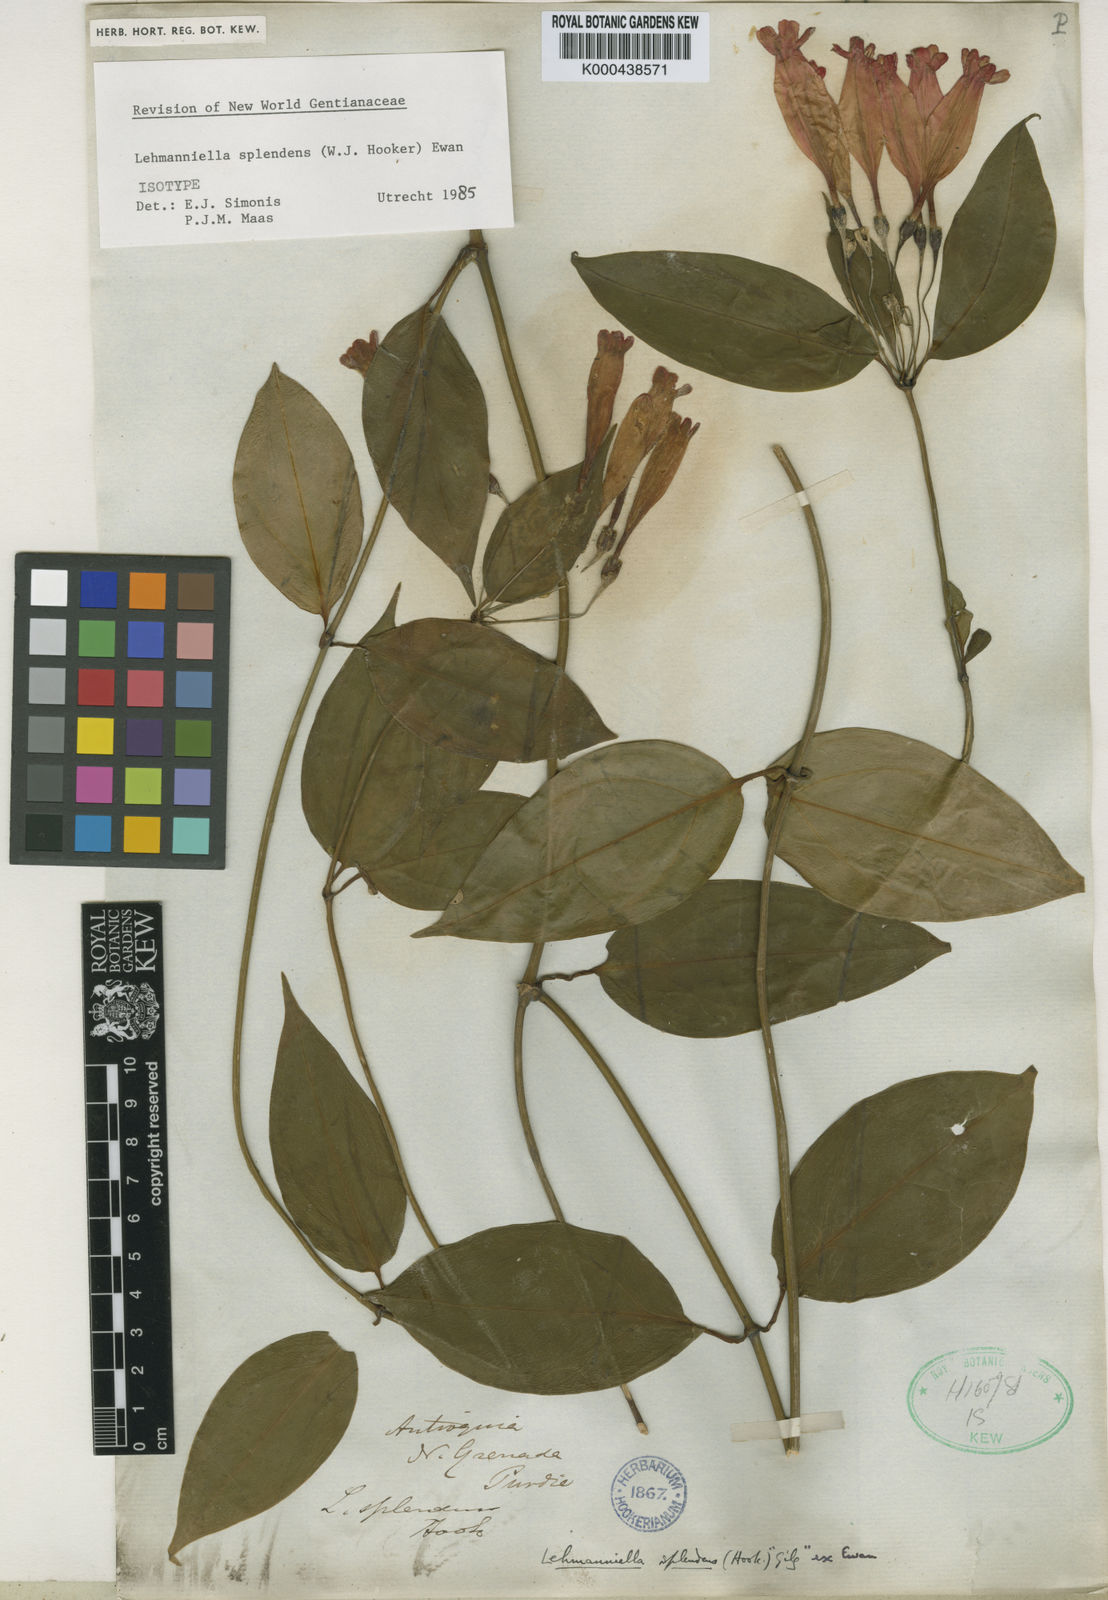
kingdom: Plantae
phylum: Tracheophyta
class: Magnoliopsida
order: Gentianales
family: Gentianaceae
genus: Lehmanniella
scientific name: Lehmanniella splendens
